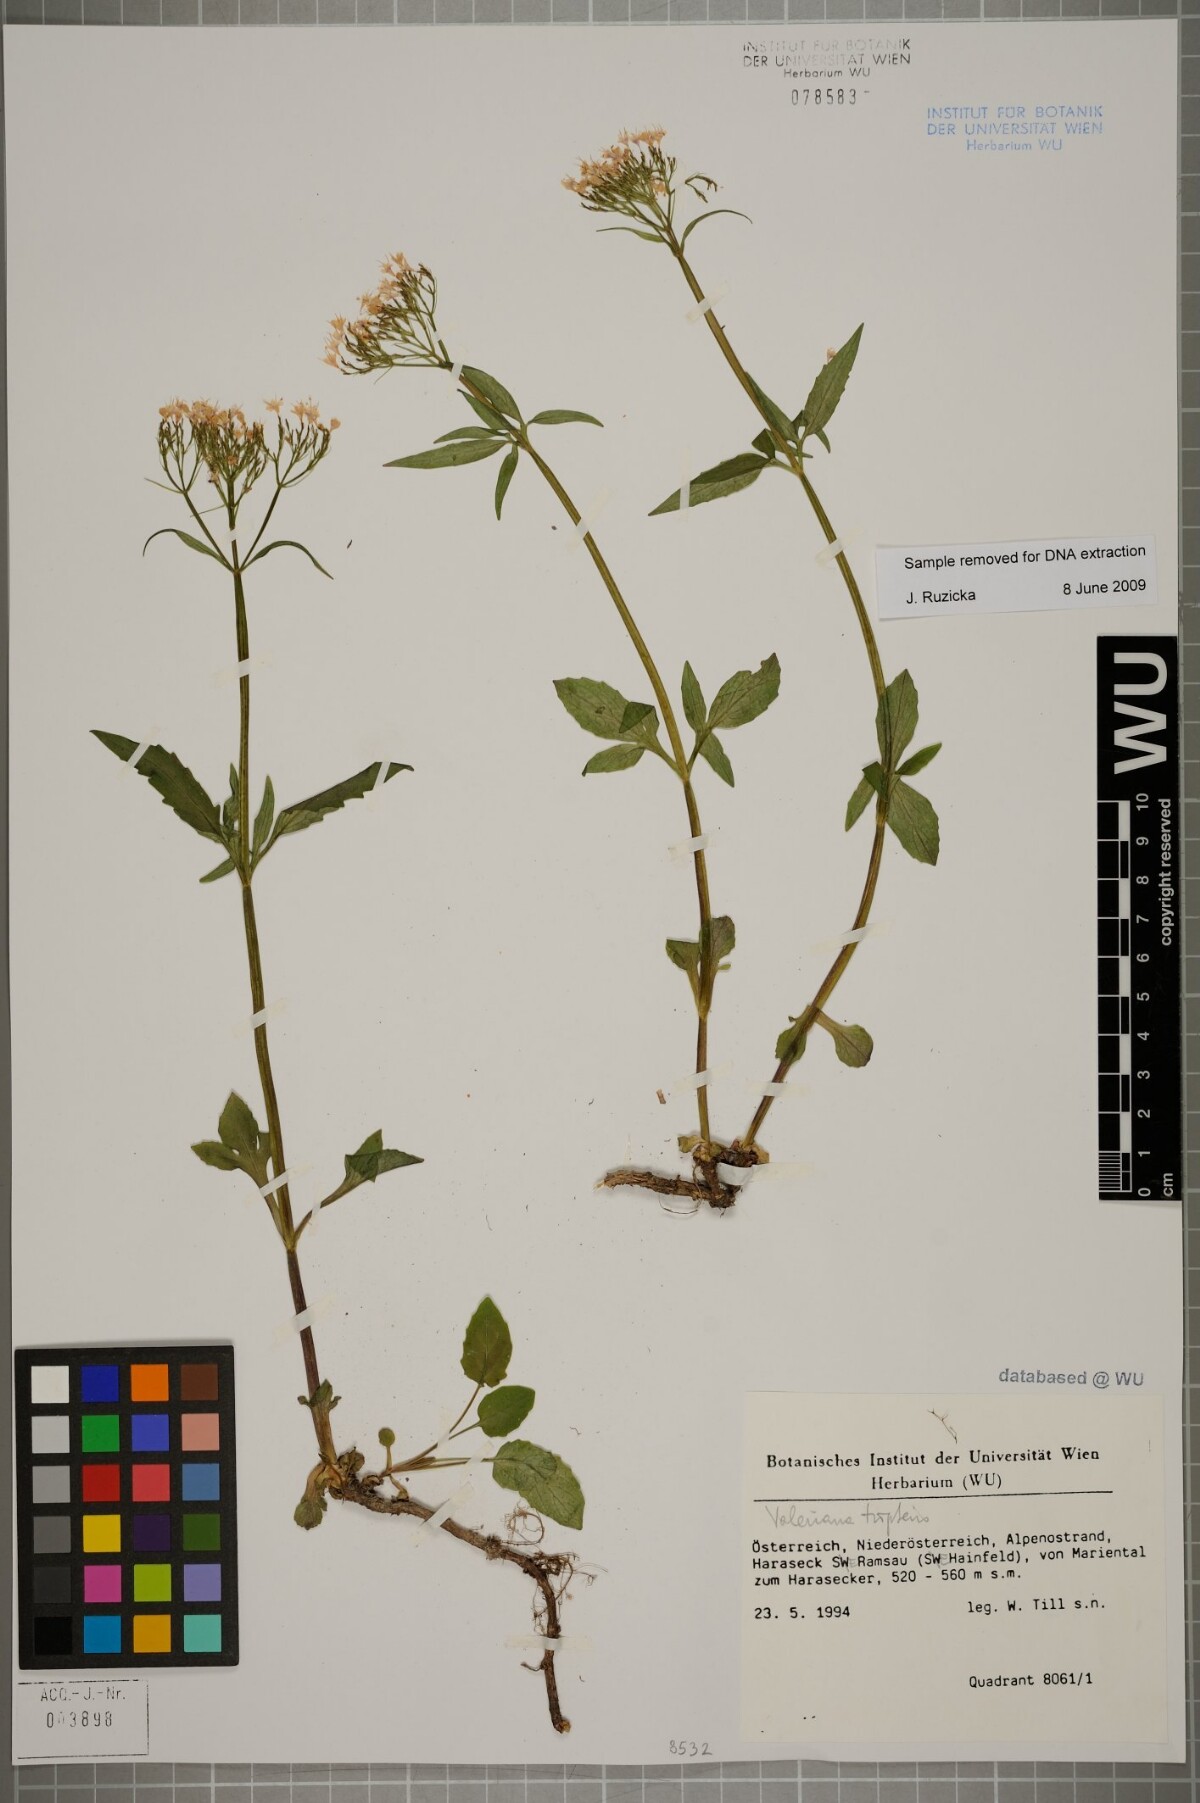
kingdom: Plantae
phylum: Tracheophyta
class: Magnoliopsida
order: Dipsacales
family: Caprifoliaceae
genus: Valeriana
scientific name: Valeriana tripteris
